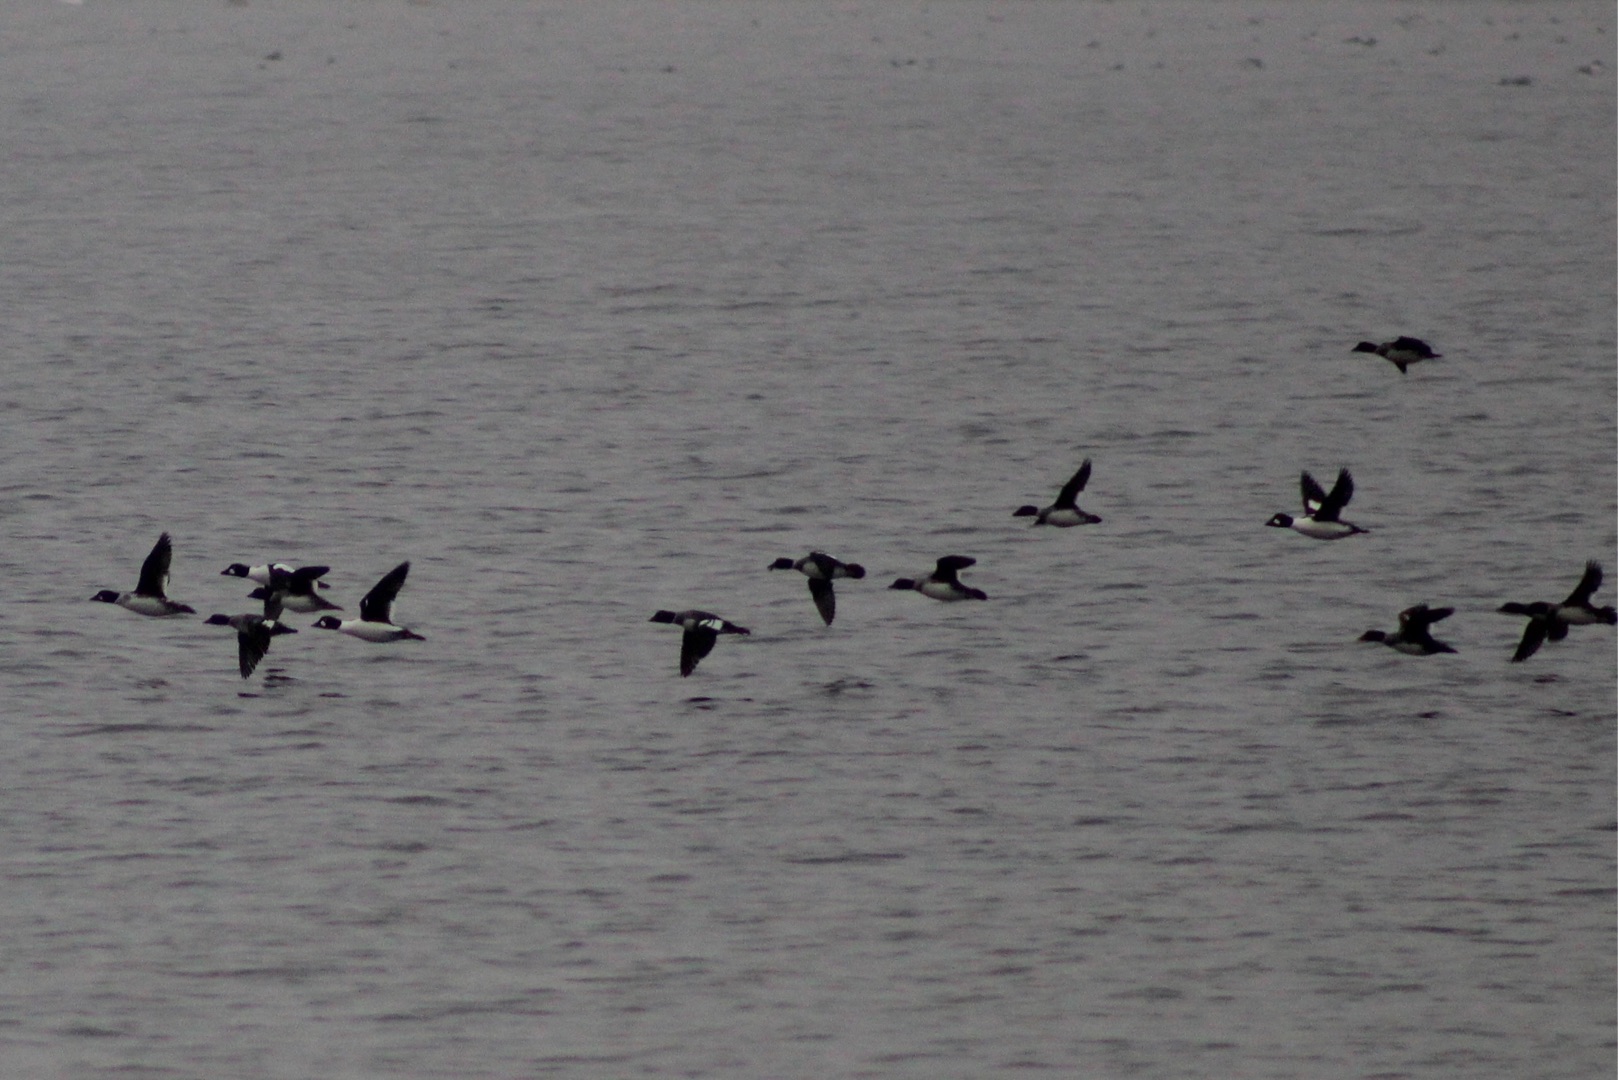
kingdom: Animalia
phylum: Chordata
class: Aves
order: Anseriformes
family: Anatidae
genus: Bucephala
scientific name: Bucephala clangula
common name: Hvinand
